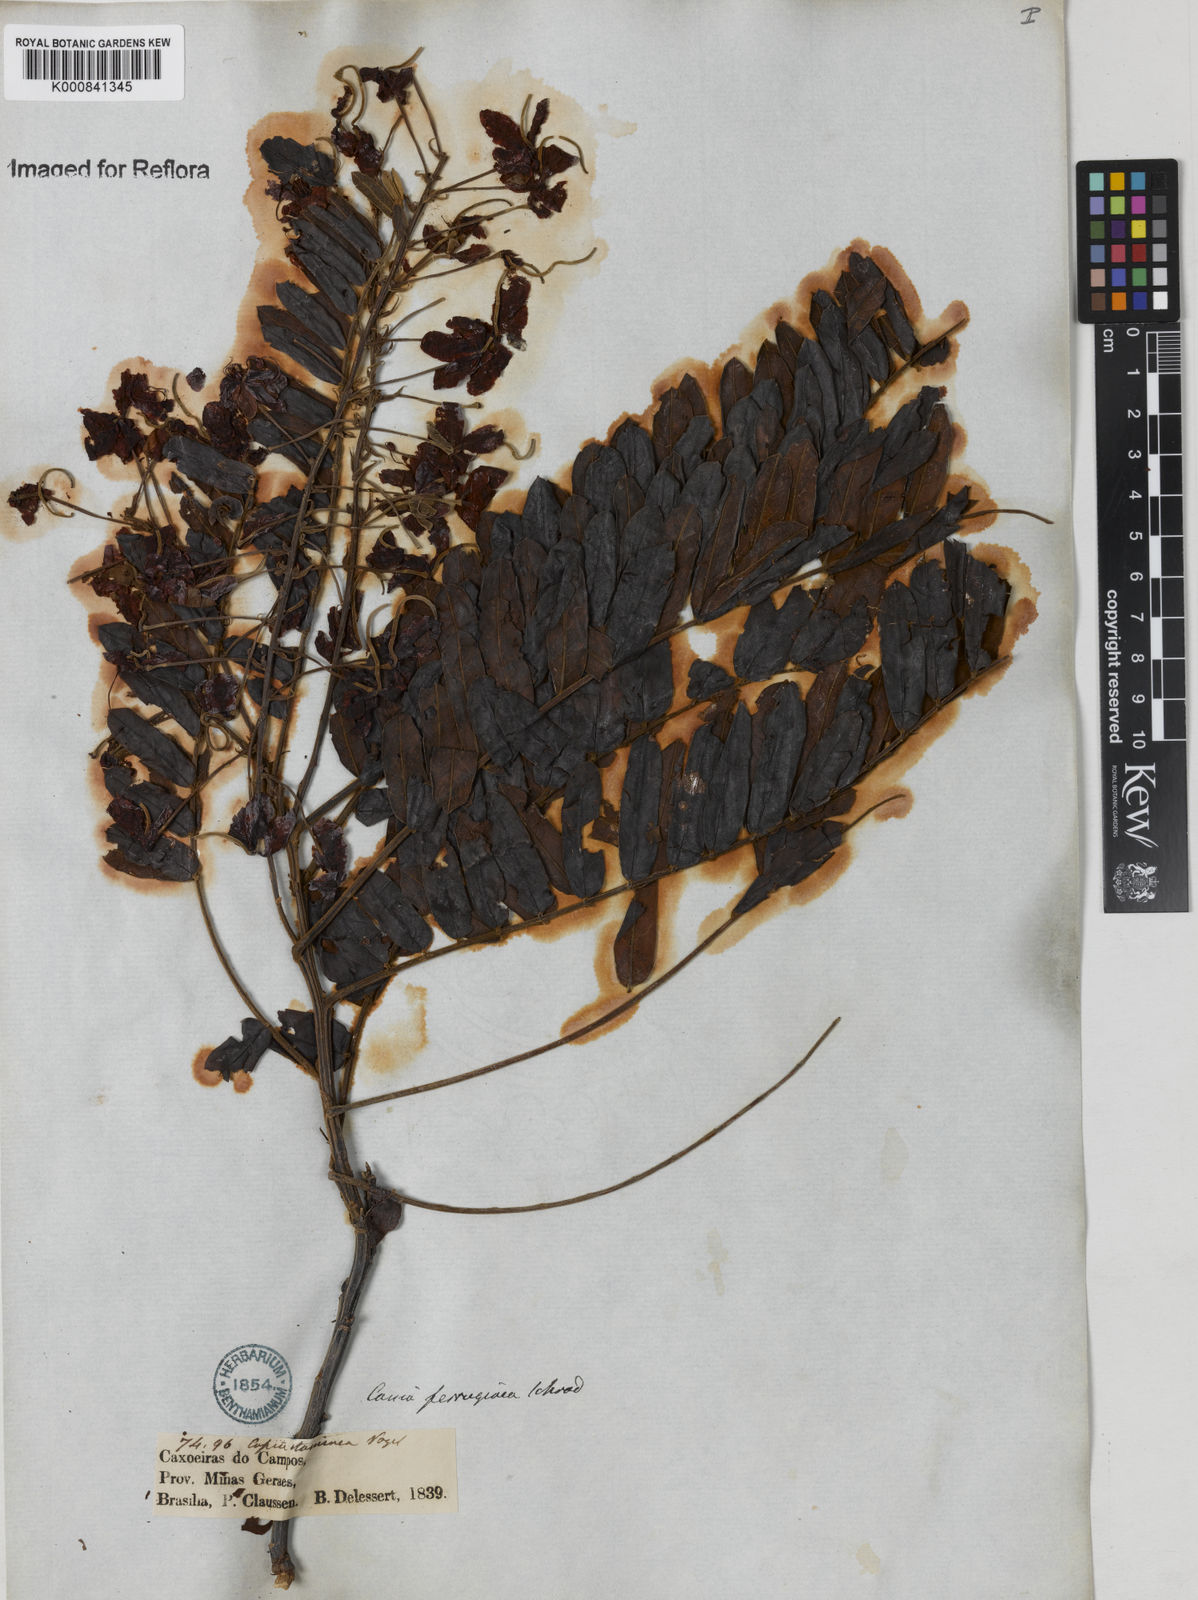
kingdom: Plantae
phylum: Tracheophyta
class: Magnoliopsida
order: Fabales
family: Fabaceae
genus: Cassia
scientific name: Cassia ferruginea
